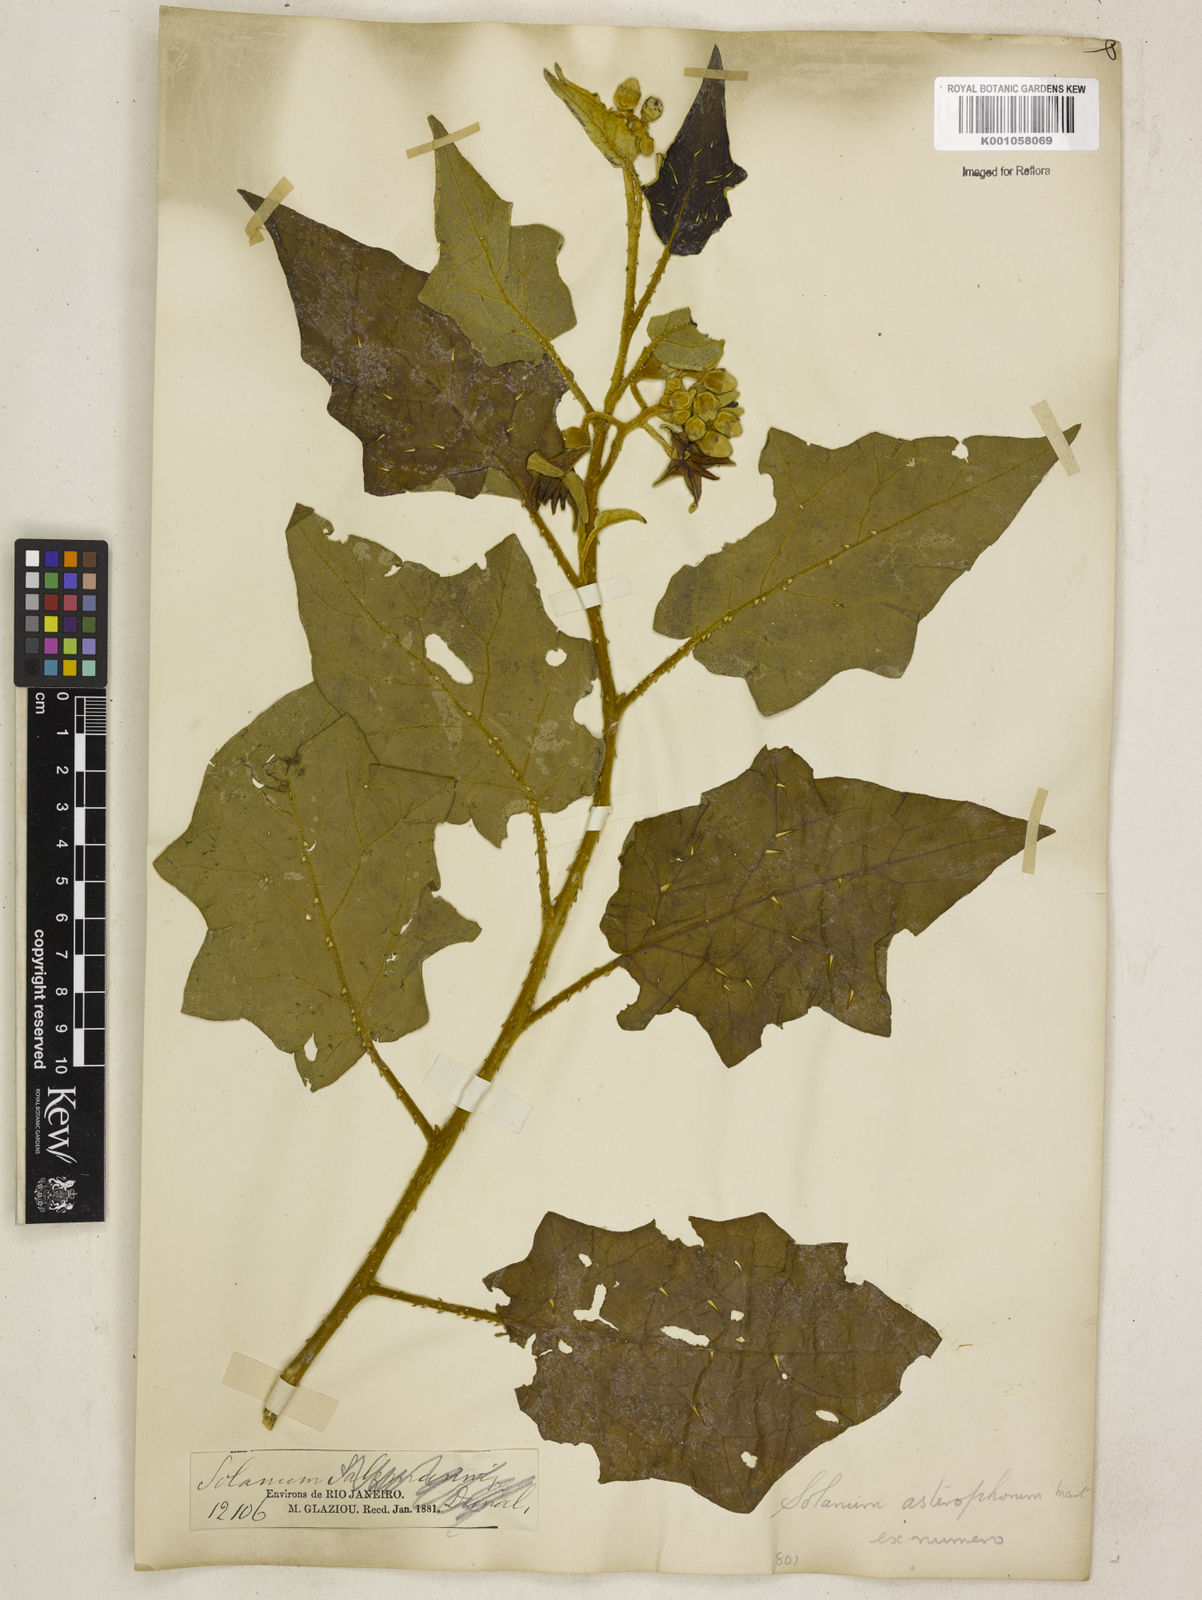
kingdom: Plantae
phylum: Tracheophyta
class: Magnoliopsida
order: Solanales
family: Solanaceae
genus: Solanum
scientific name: Solanum asterophorum
